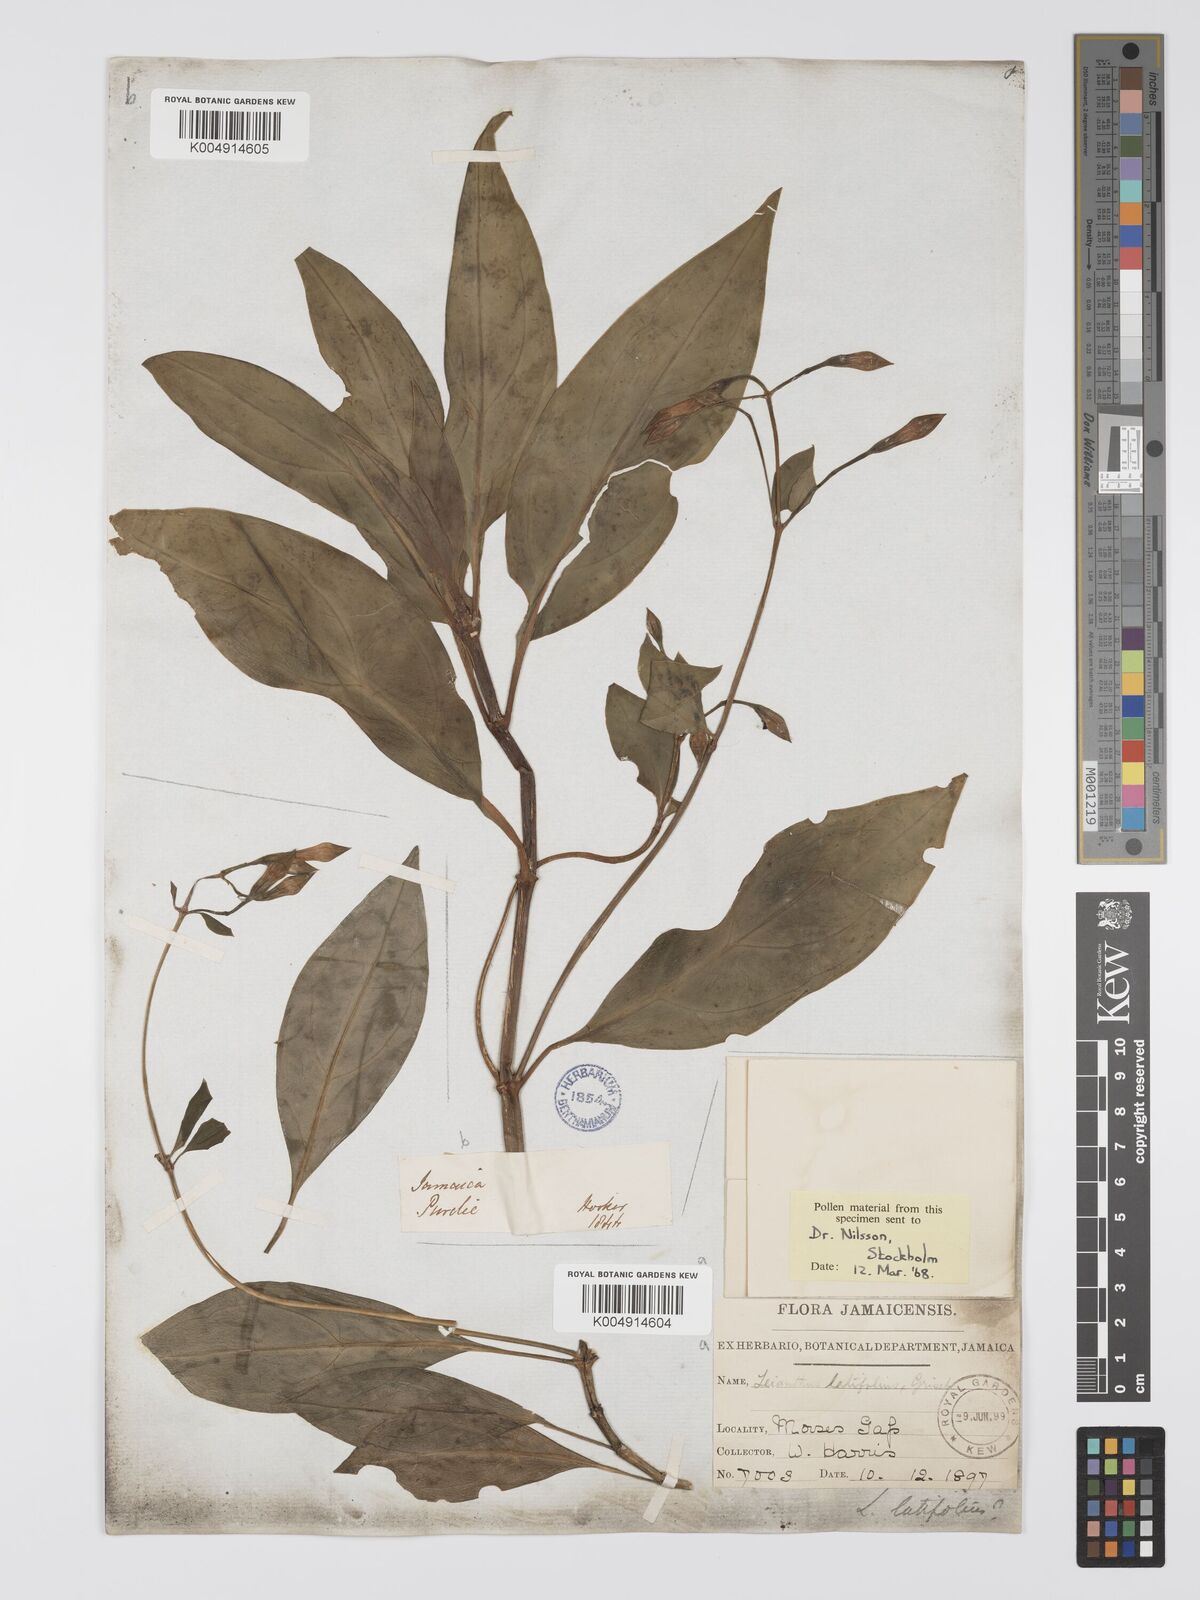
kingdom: Plantae
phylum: Tracheophyta
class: Magnoliopsida
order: Gentianales
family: Gentianaceae
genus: Lisianthus
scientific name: Lisianthus latifolius
